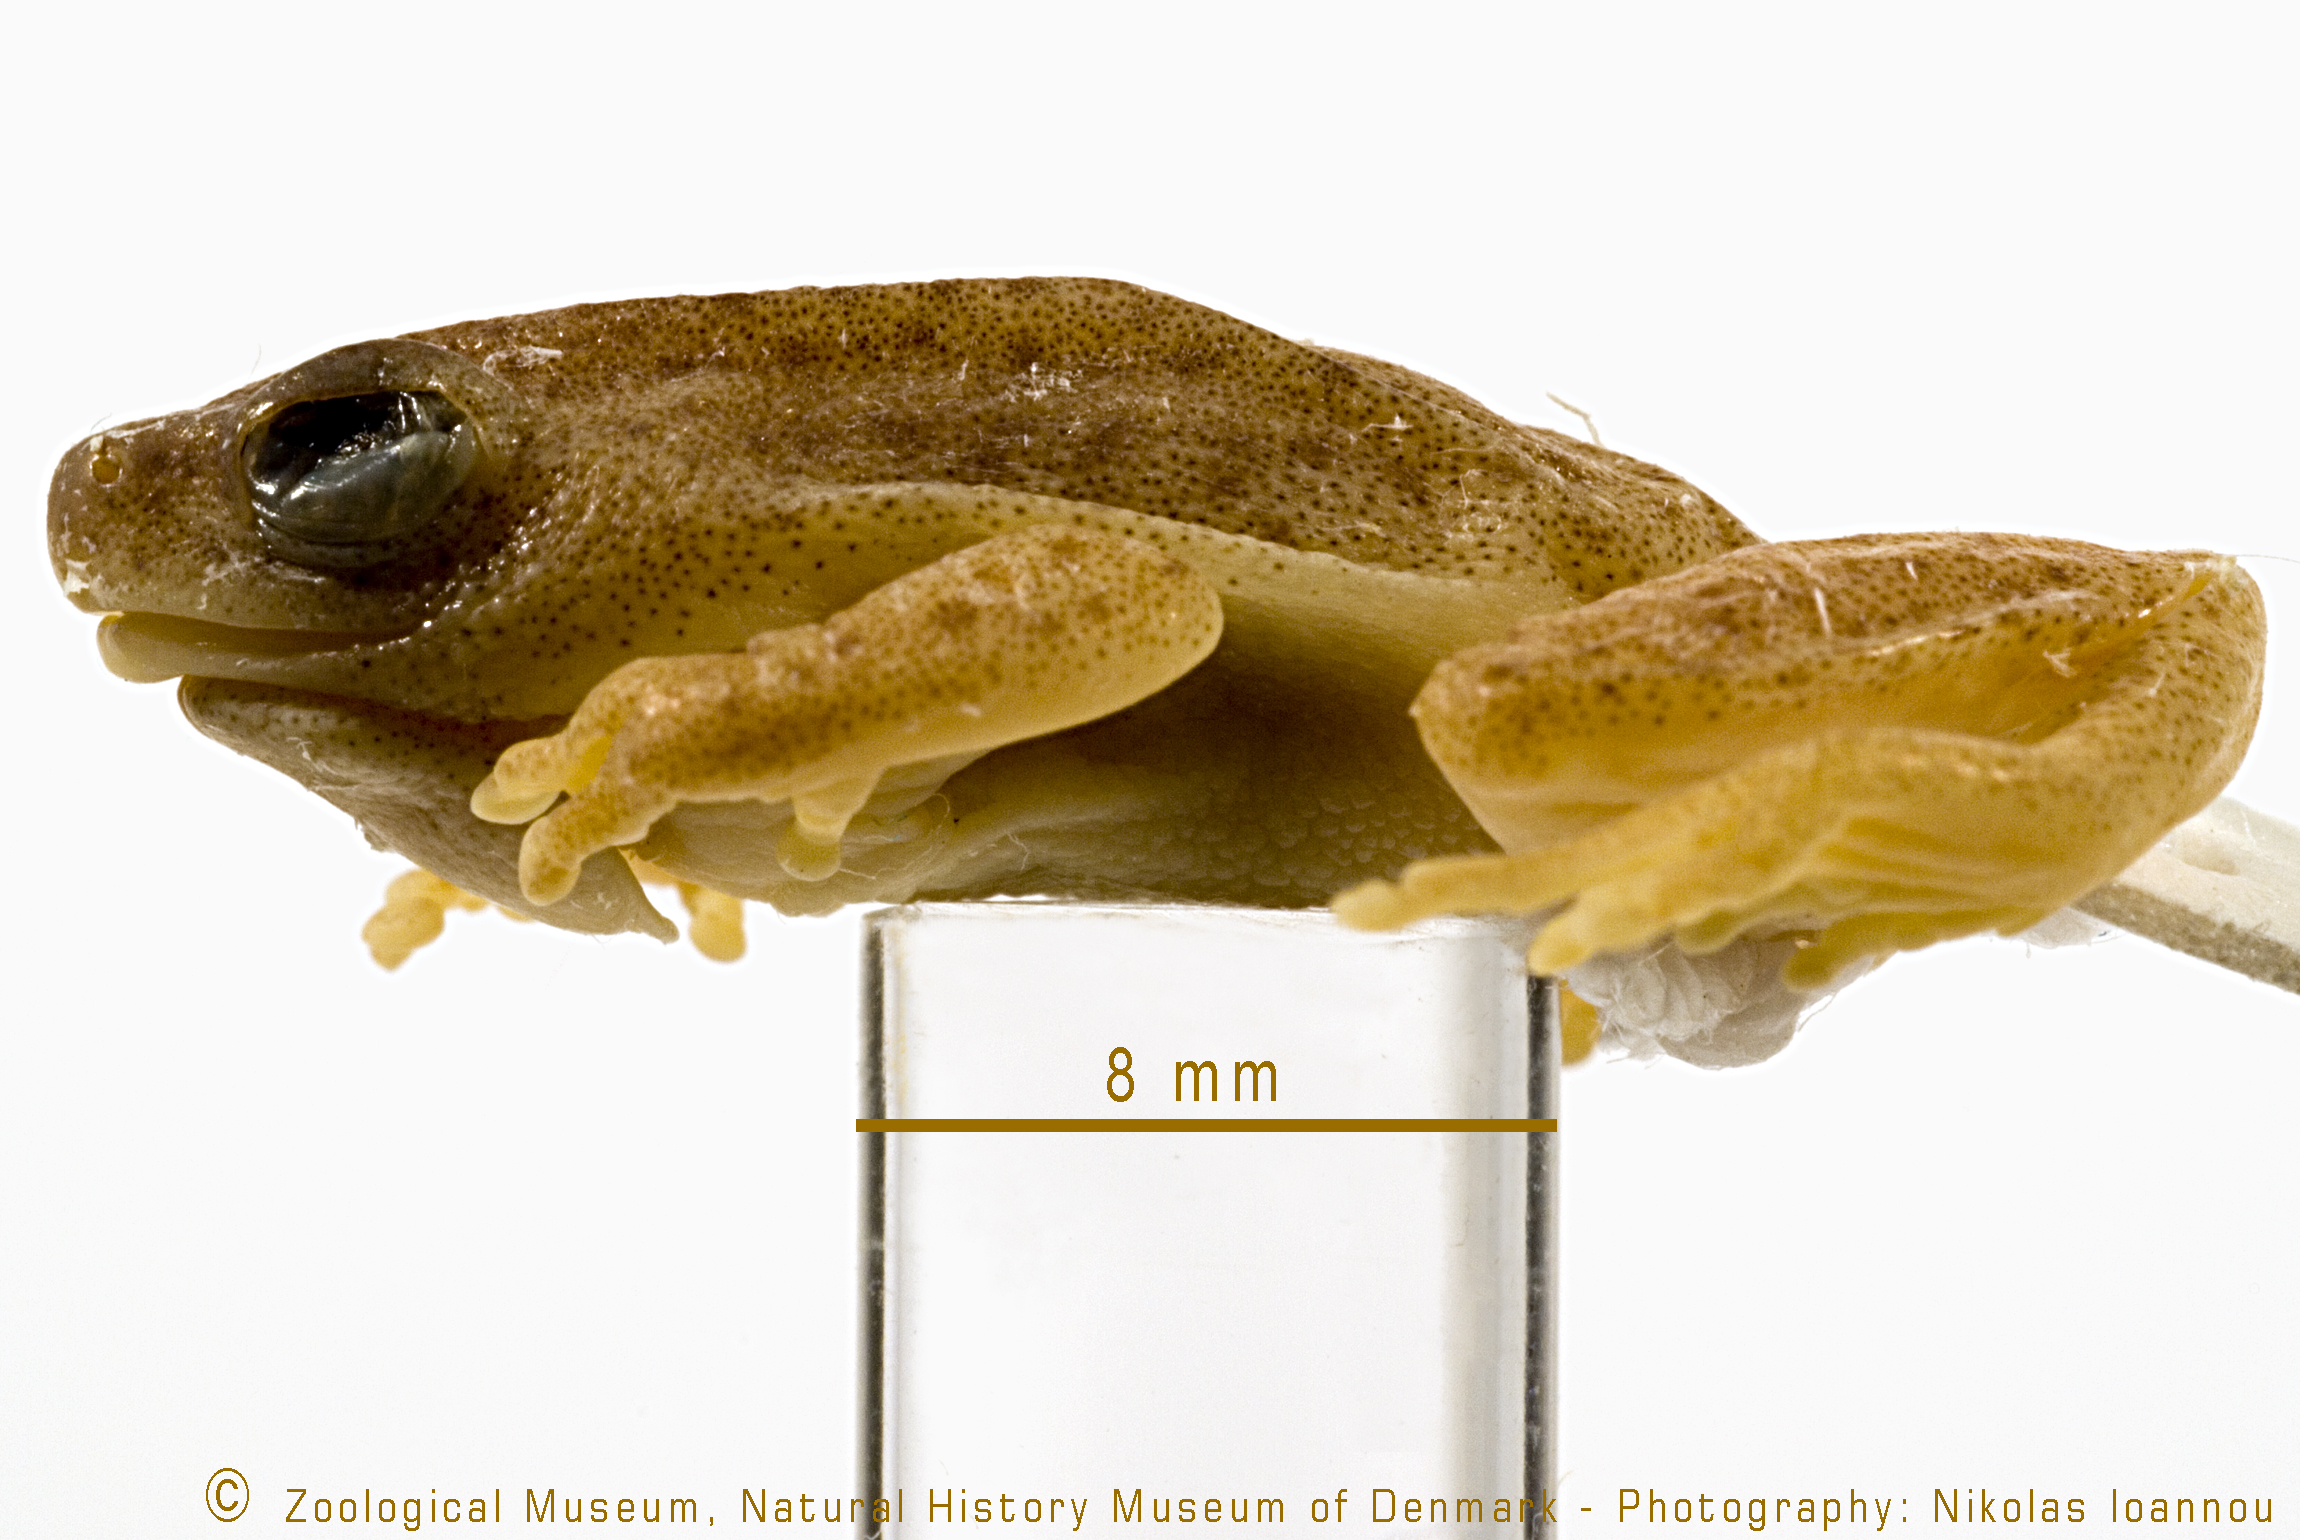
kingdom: Animalia
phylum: Chordata
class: Amphibia
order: Anura
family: Hyperoliidae
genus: Hyperolius
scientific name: Hyperolius viridis
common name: Green reed frog
